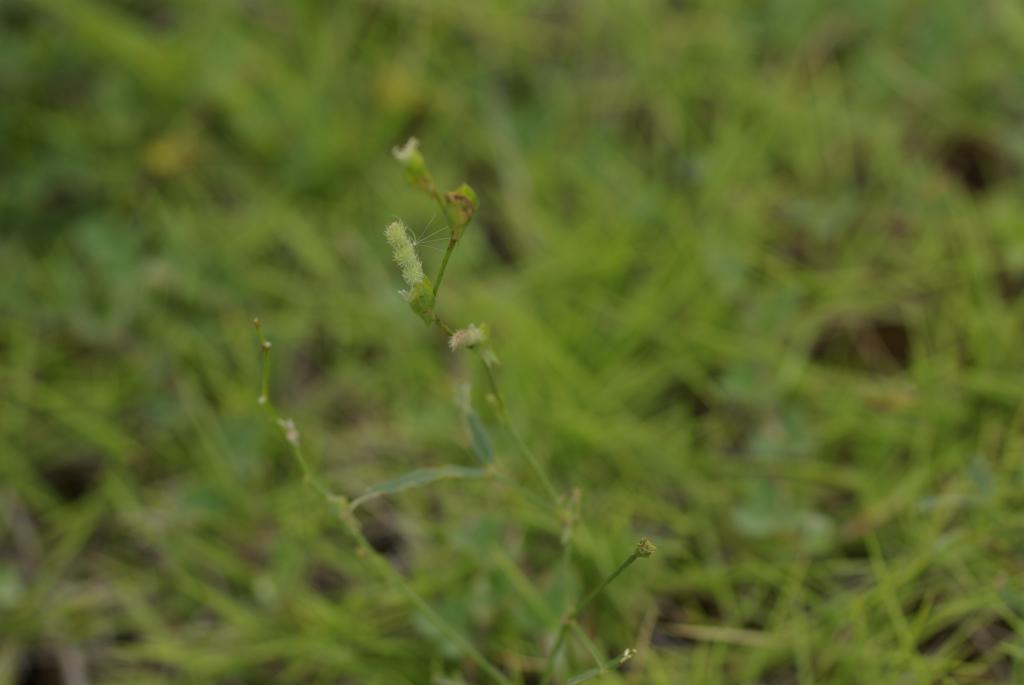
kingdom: Plantae
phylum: Tracheophyta
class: Magnoliopsida
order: Fabales
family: Fabaceae
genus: Zornia
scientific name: Zornia gibbosa
